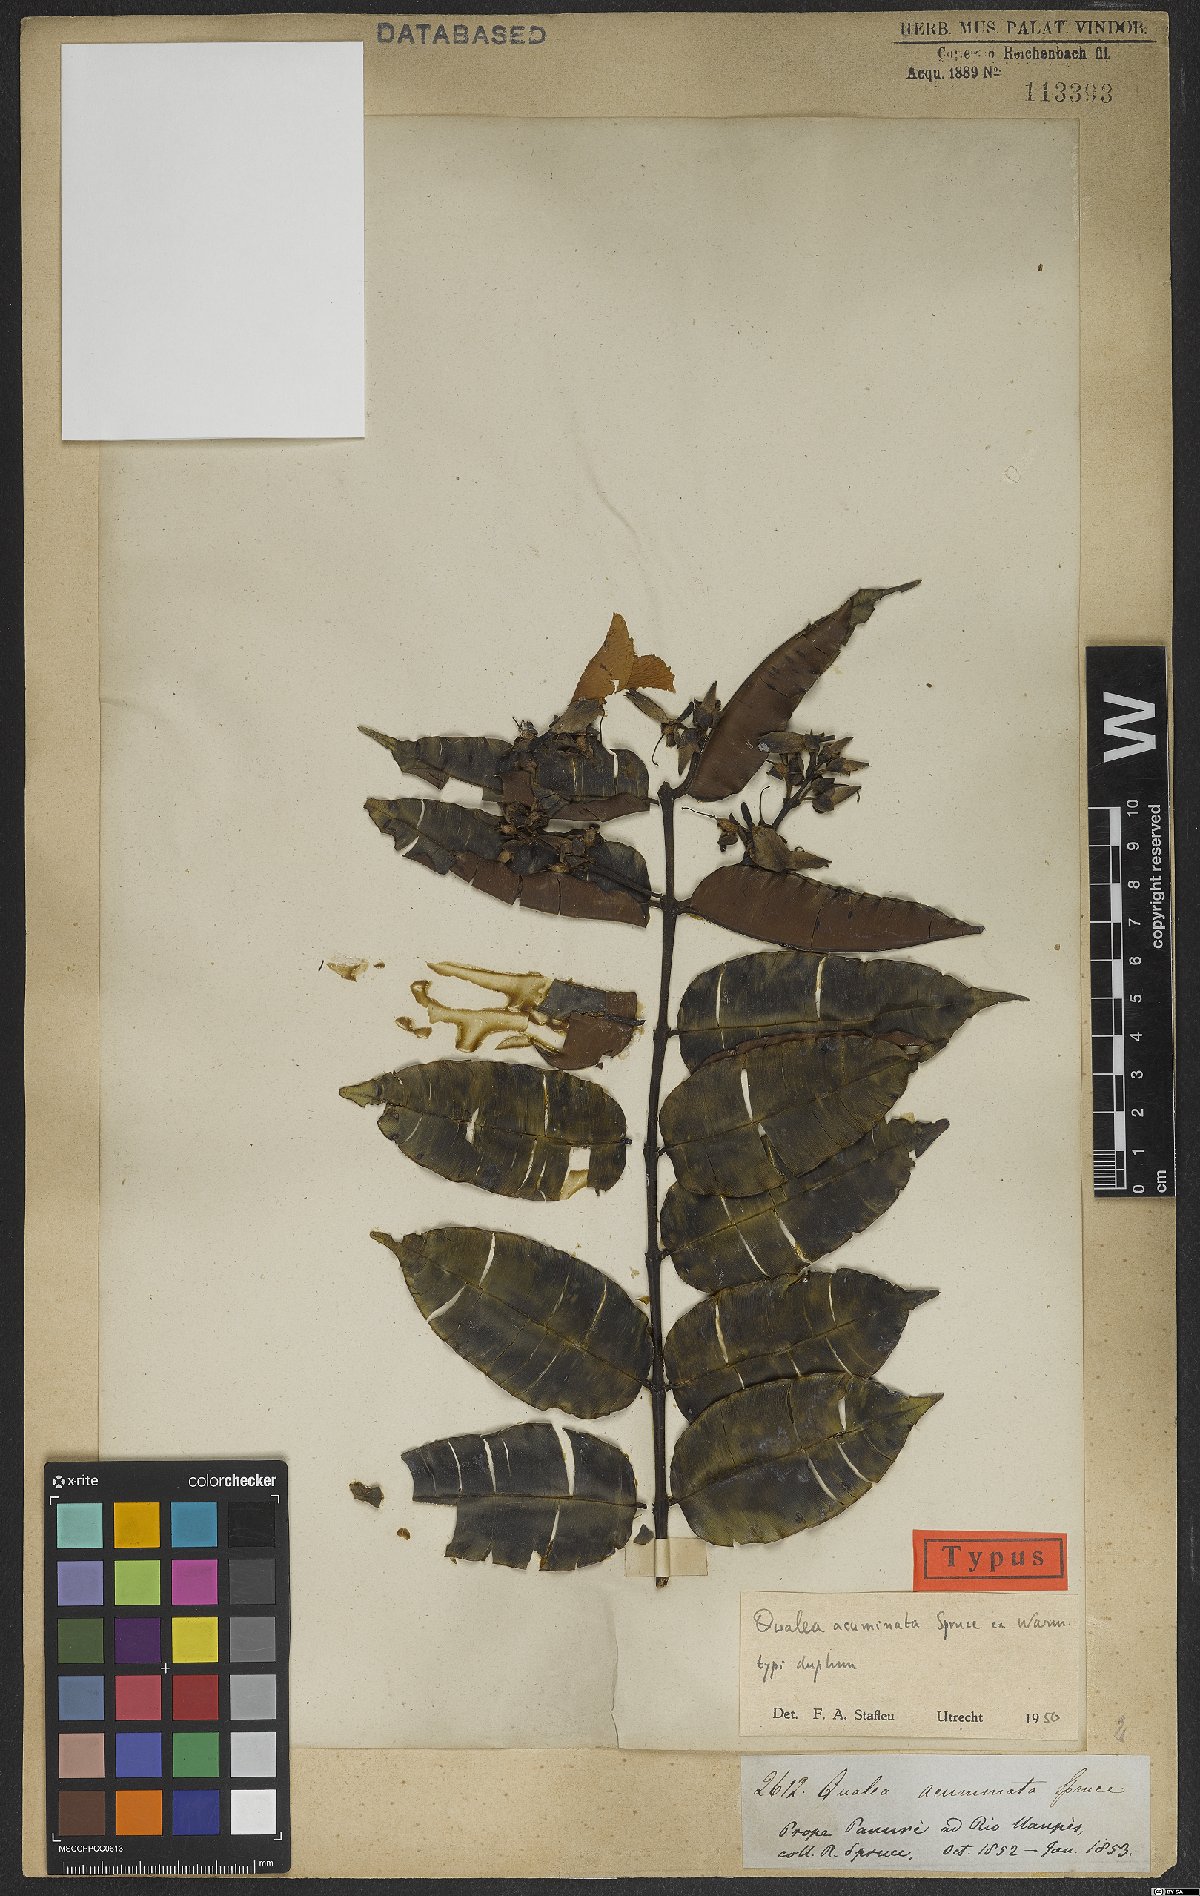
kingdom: Plantae
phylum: Tracheophyta
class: Magnoliopsida
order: Myrtales
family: Vochysiaceae
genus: Qualea
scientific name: Qualea acuminata
